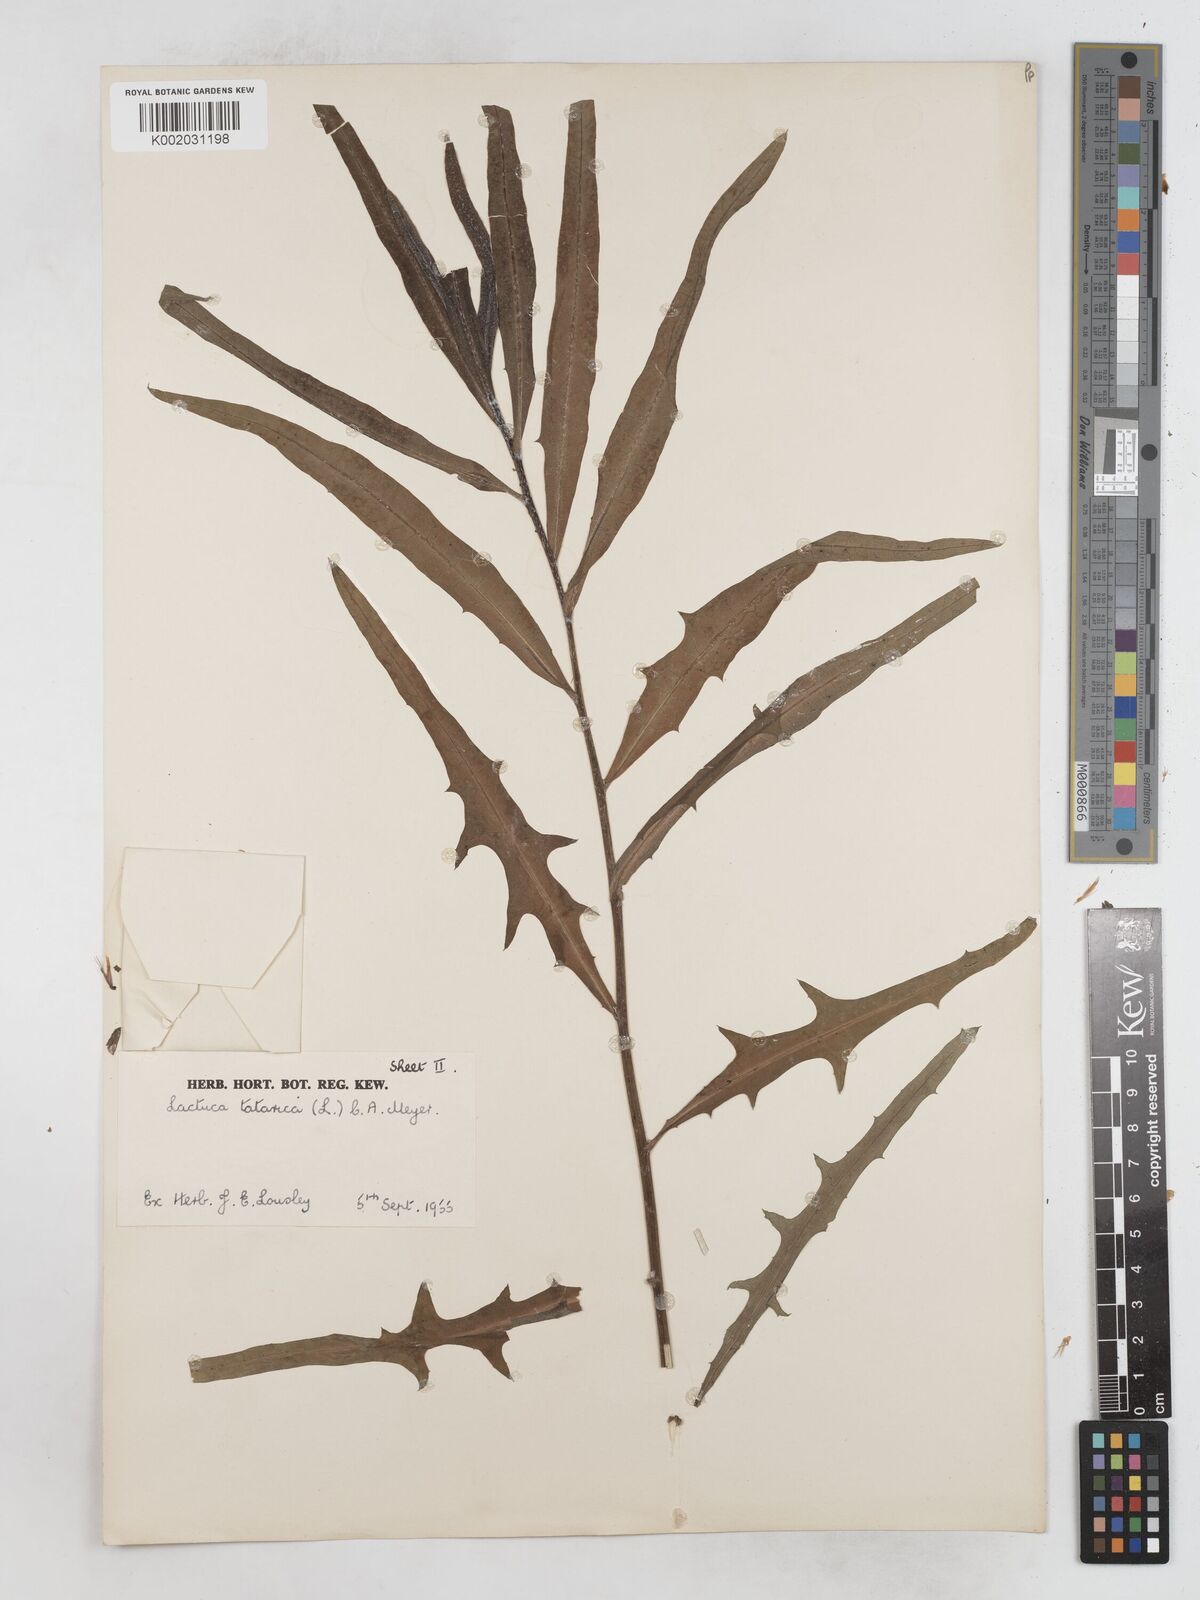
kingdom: Plantae
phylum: Tracheophyta
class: Magnoliopsida
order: Asterales
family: Asteraceae
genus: Lactuca
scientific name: Lactuca tatarica
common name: Blue lettuce
